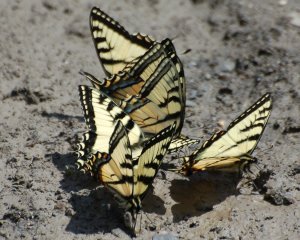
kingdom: Animalia
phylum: Arthropoda
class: Insecta
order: Lepidoptera
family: Papilionidae
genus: Pterourus
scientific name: Pterourus canadensis
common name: Canadian Tiger Swallowtail
